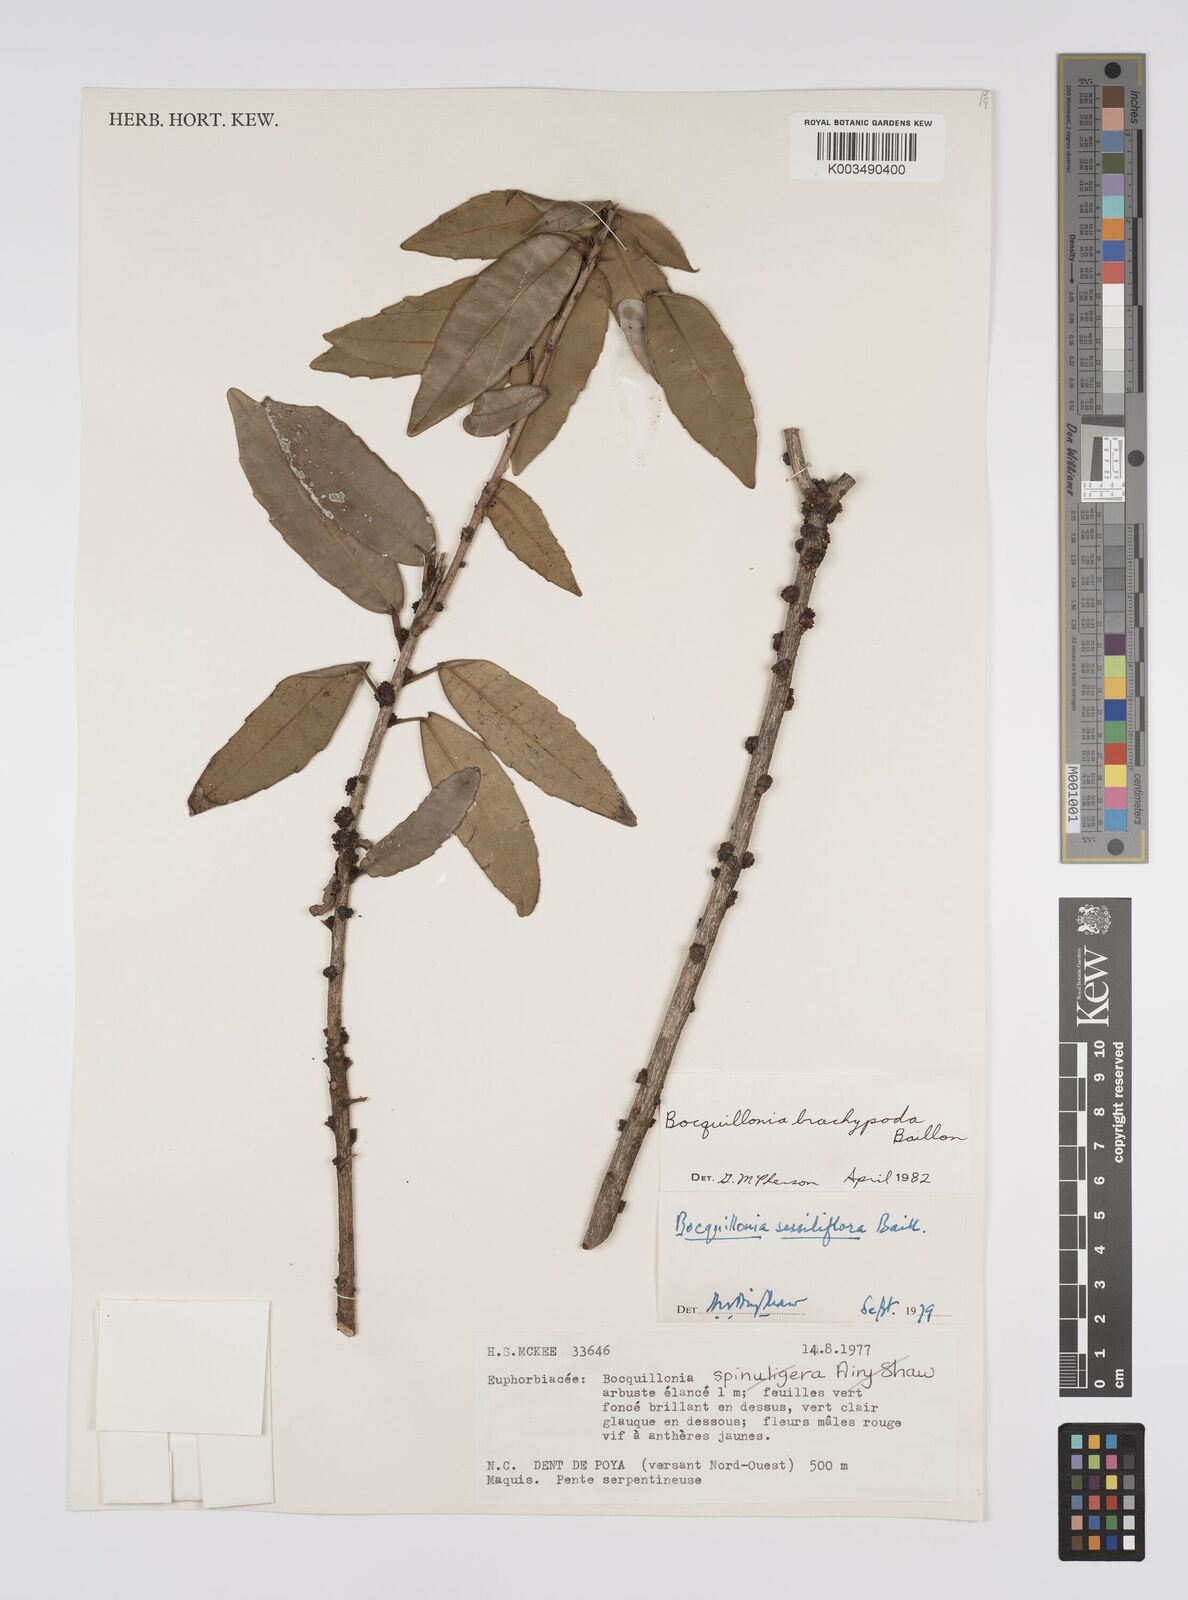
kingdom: Plantae
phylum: Tracheophyta
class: Magnoliopsida
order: Malpighiales
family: Euphorbiaceae
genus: Bocquillonia
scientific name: Bocquillonia brachypoda
